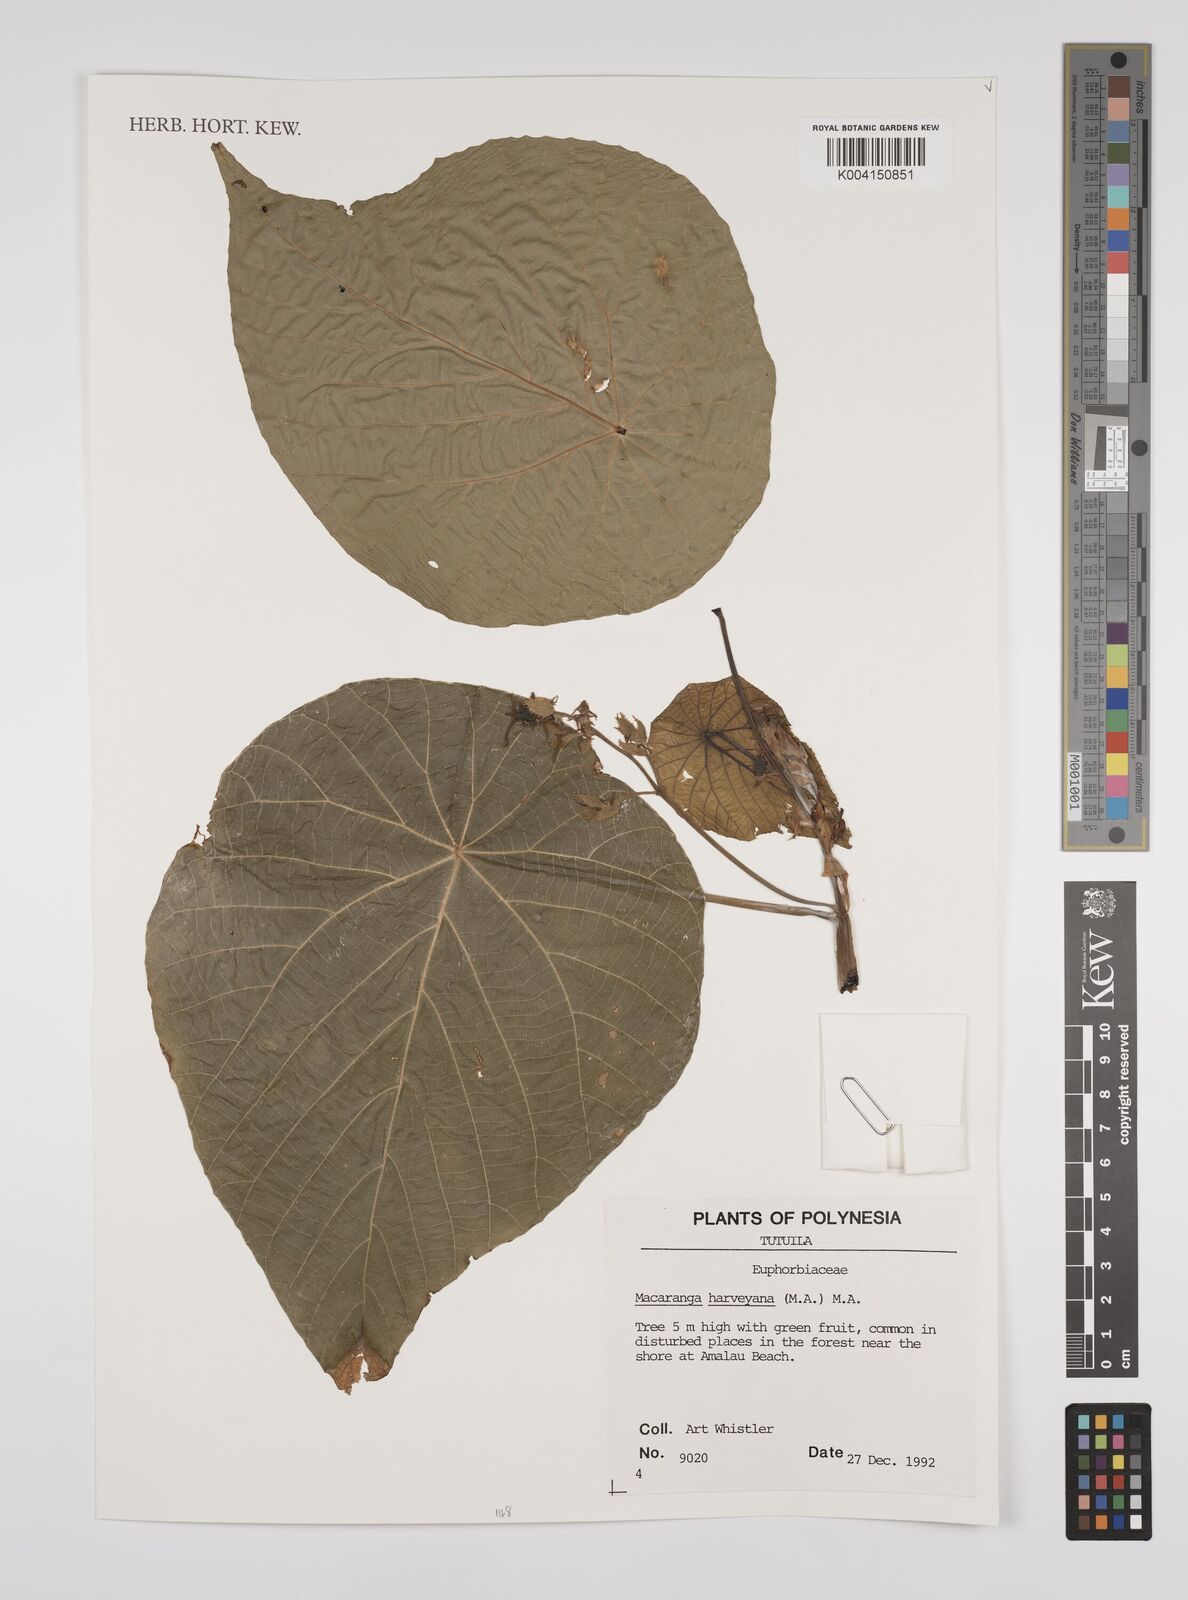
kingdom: Plantae
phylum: Tracheophyta
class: Magnoliopsida
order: Malpighiales
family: Euphorbiaceae
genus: Macaranga
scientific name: Macaranga harveyana
